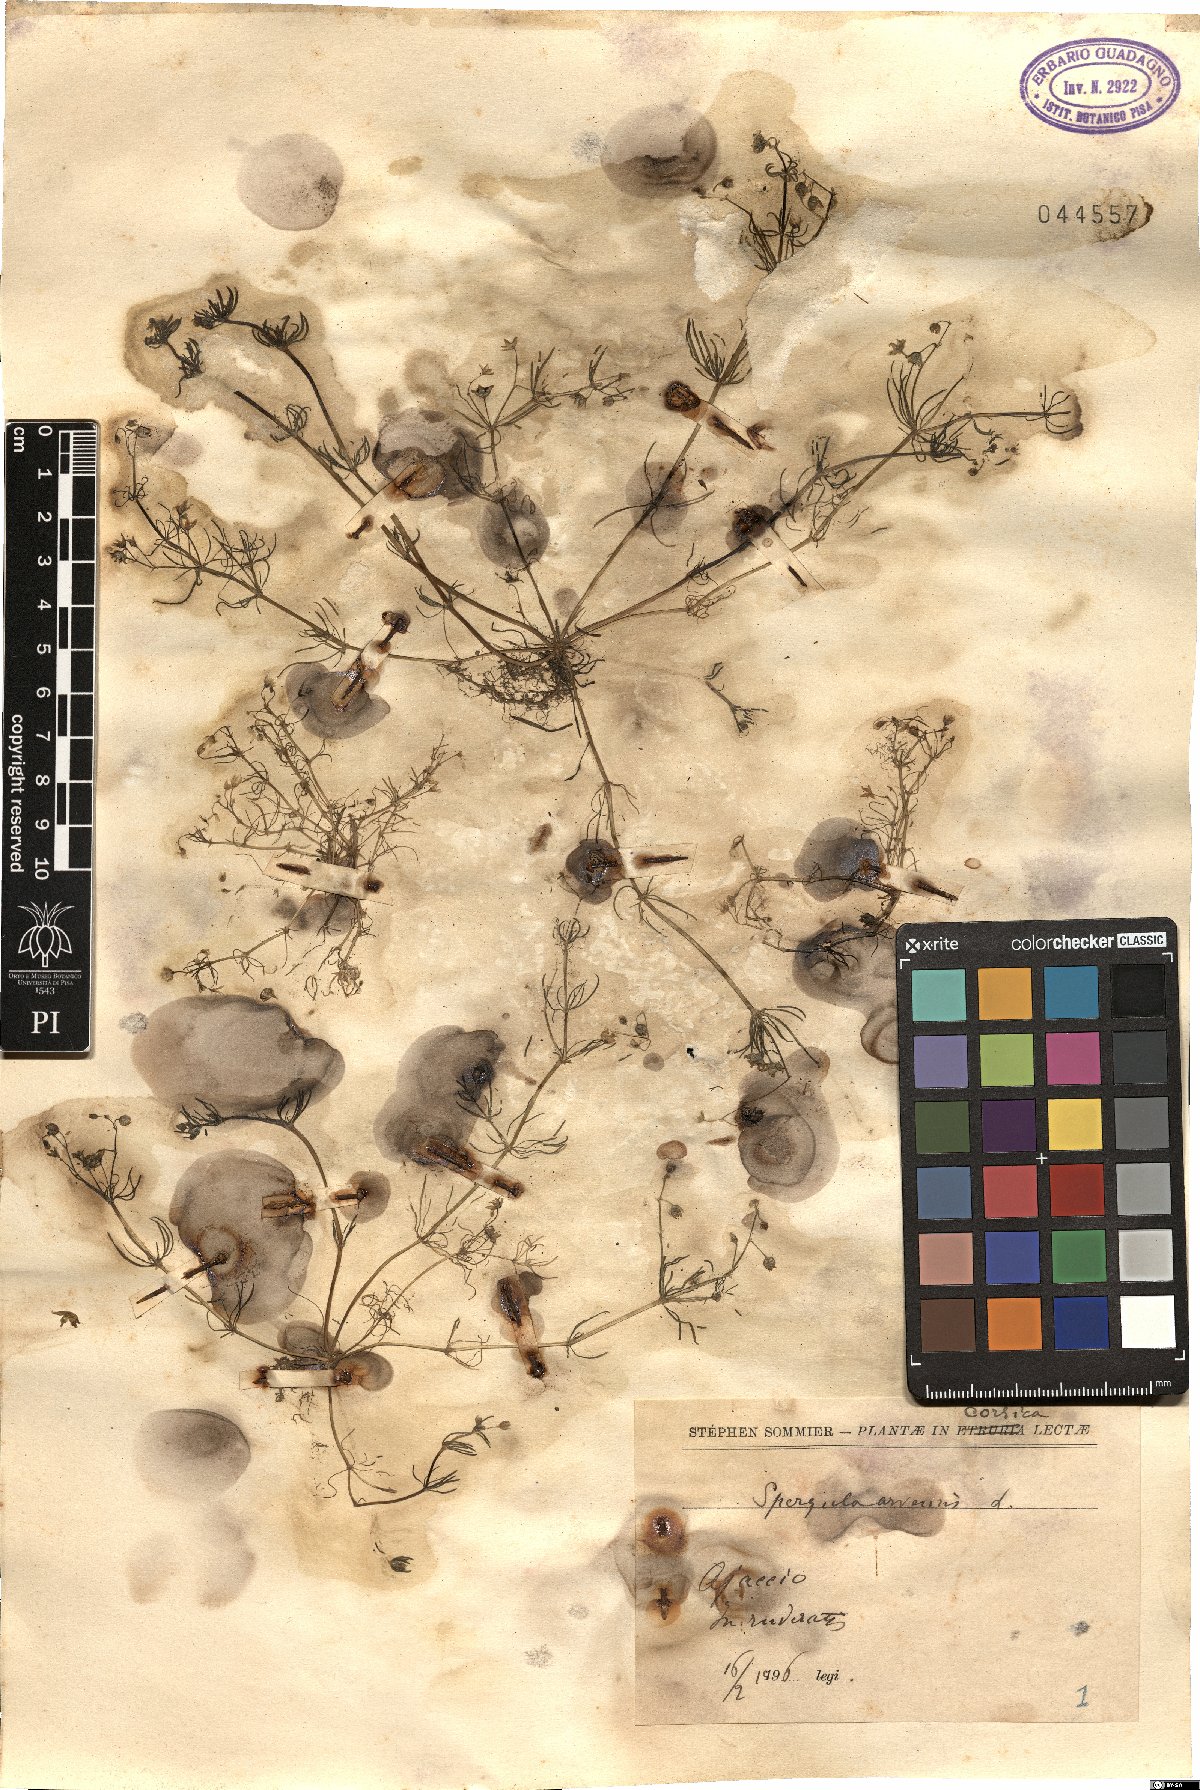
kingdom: Plantae
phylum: Tracheophyta
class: Magnoliopsida
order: Caryophyllales
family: Caryophyllaceae
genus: Spergula
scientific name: Spergula arvensis
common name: Corn spurrey
